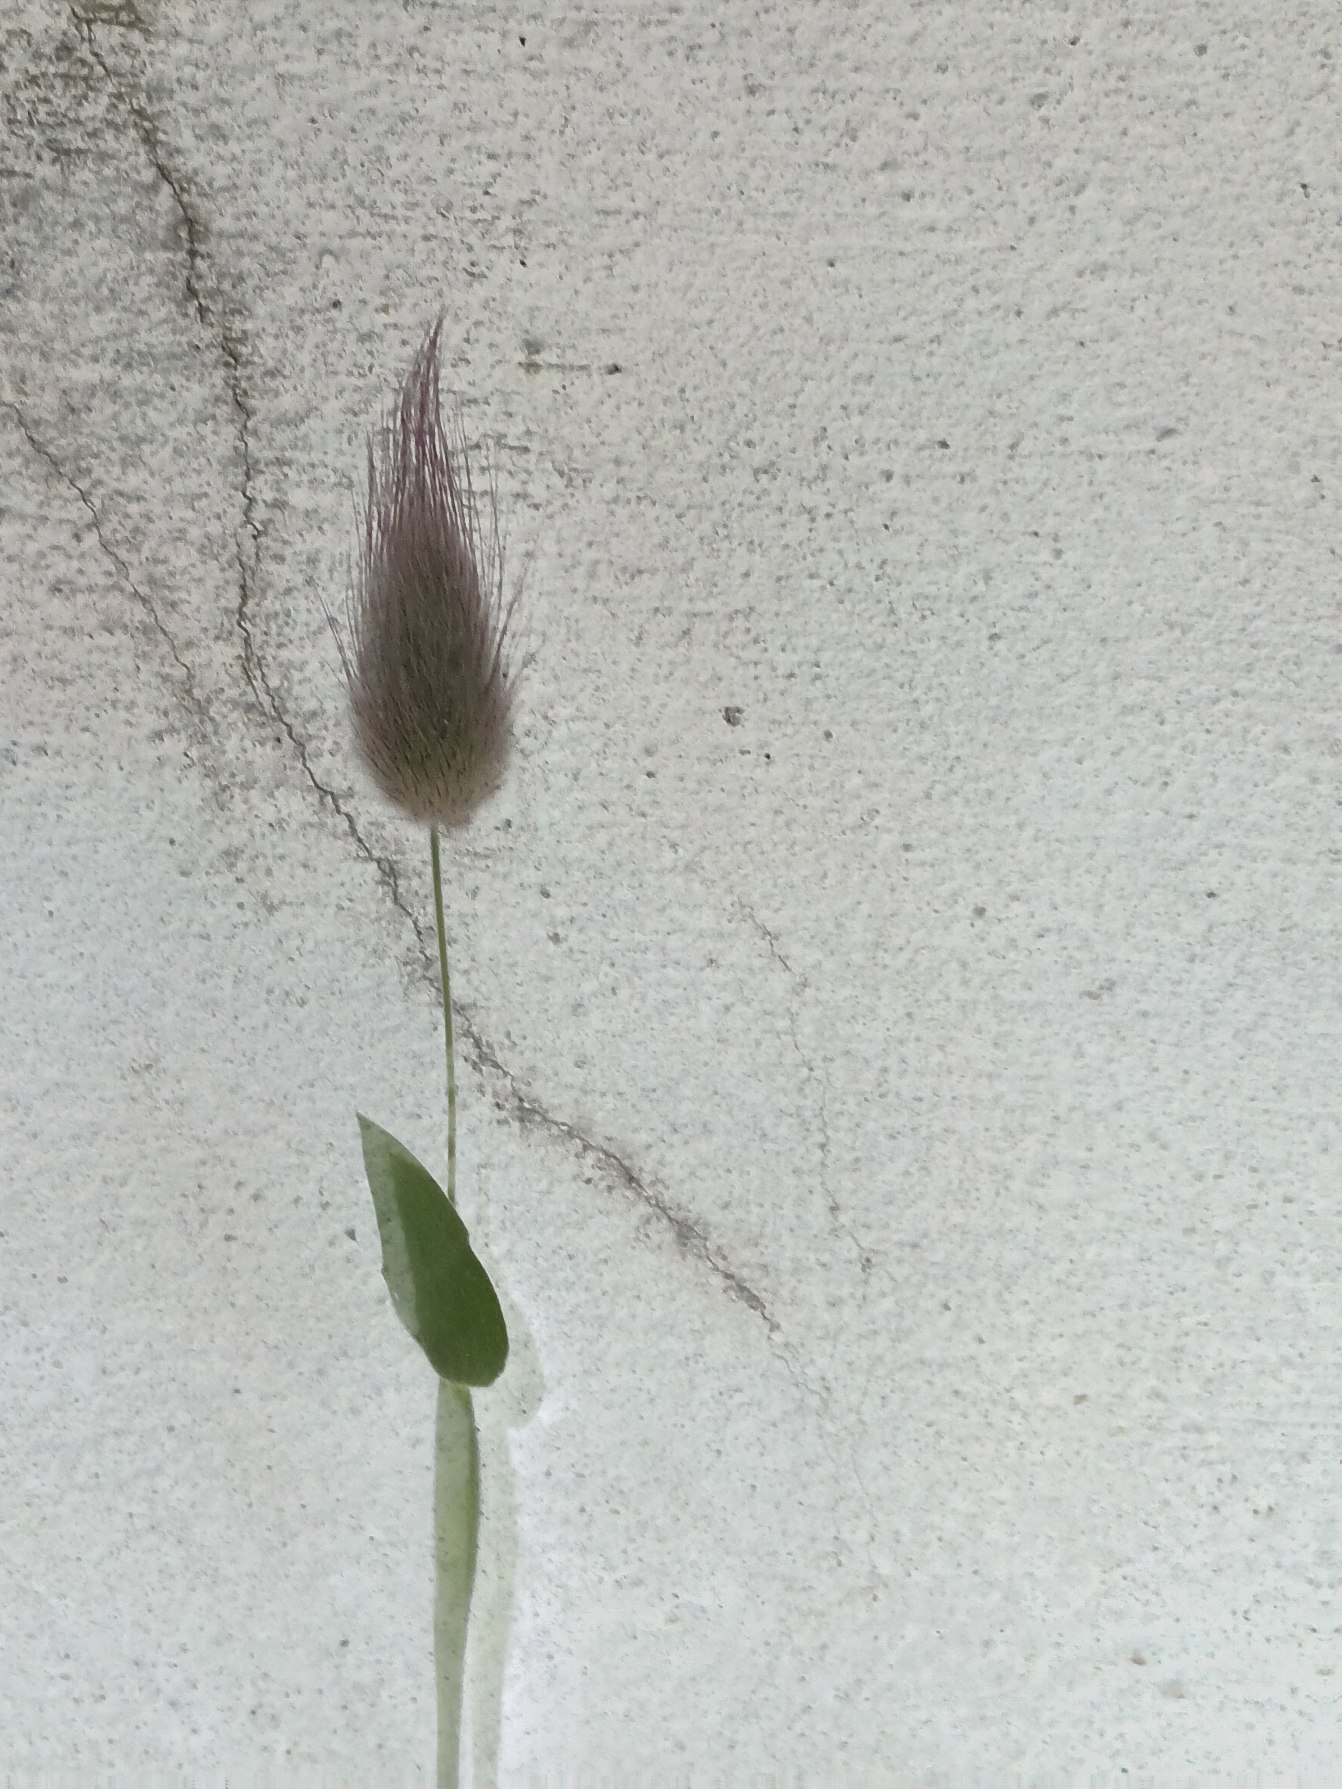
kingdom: Plantae
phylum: Tracheophyta
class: Liliopsida
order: Poales
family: Poaceae
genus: Lagurus
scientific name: Lagurus ovatus
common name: Harehale
